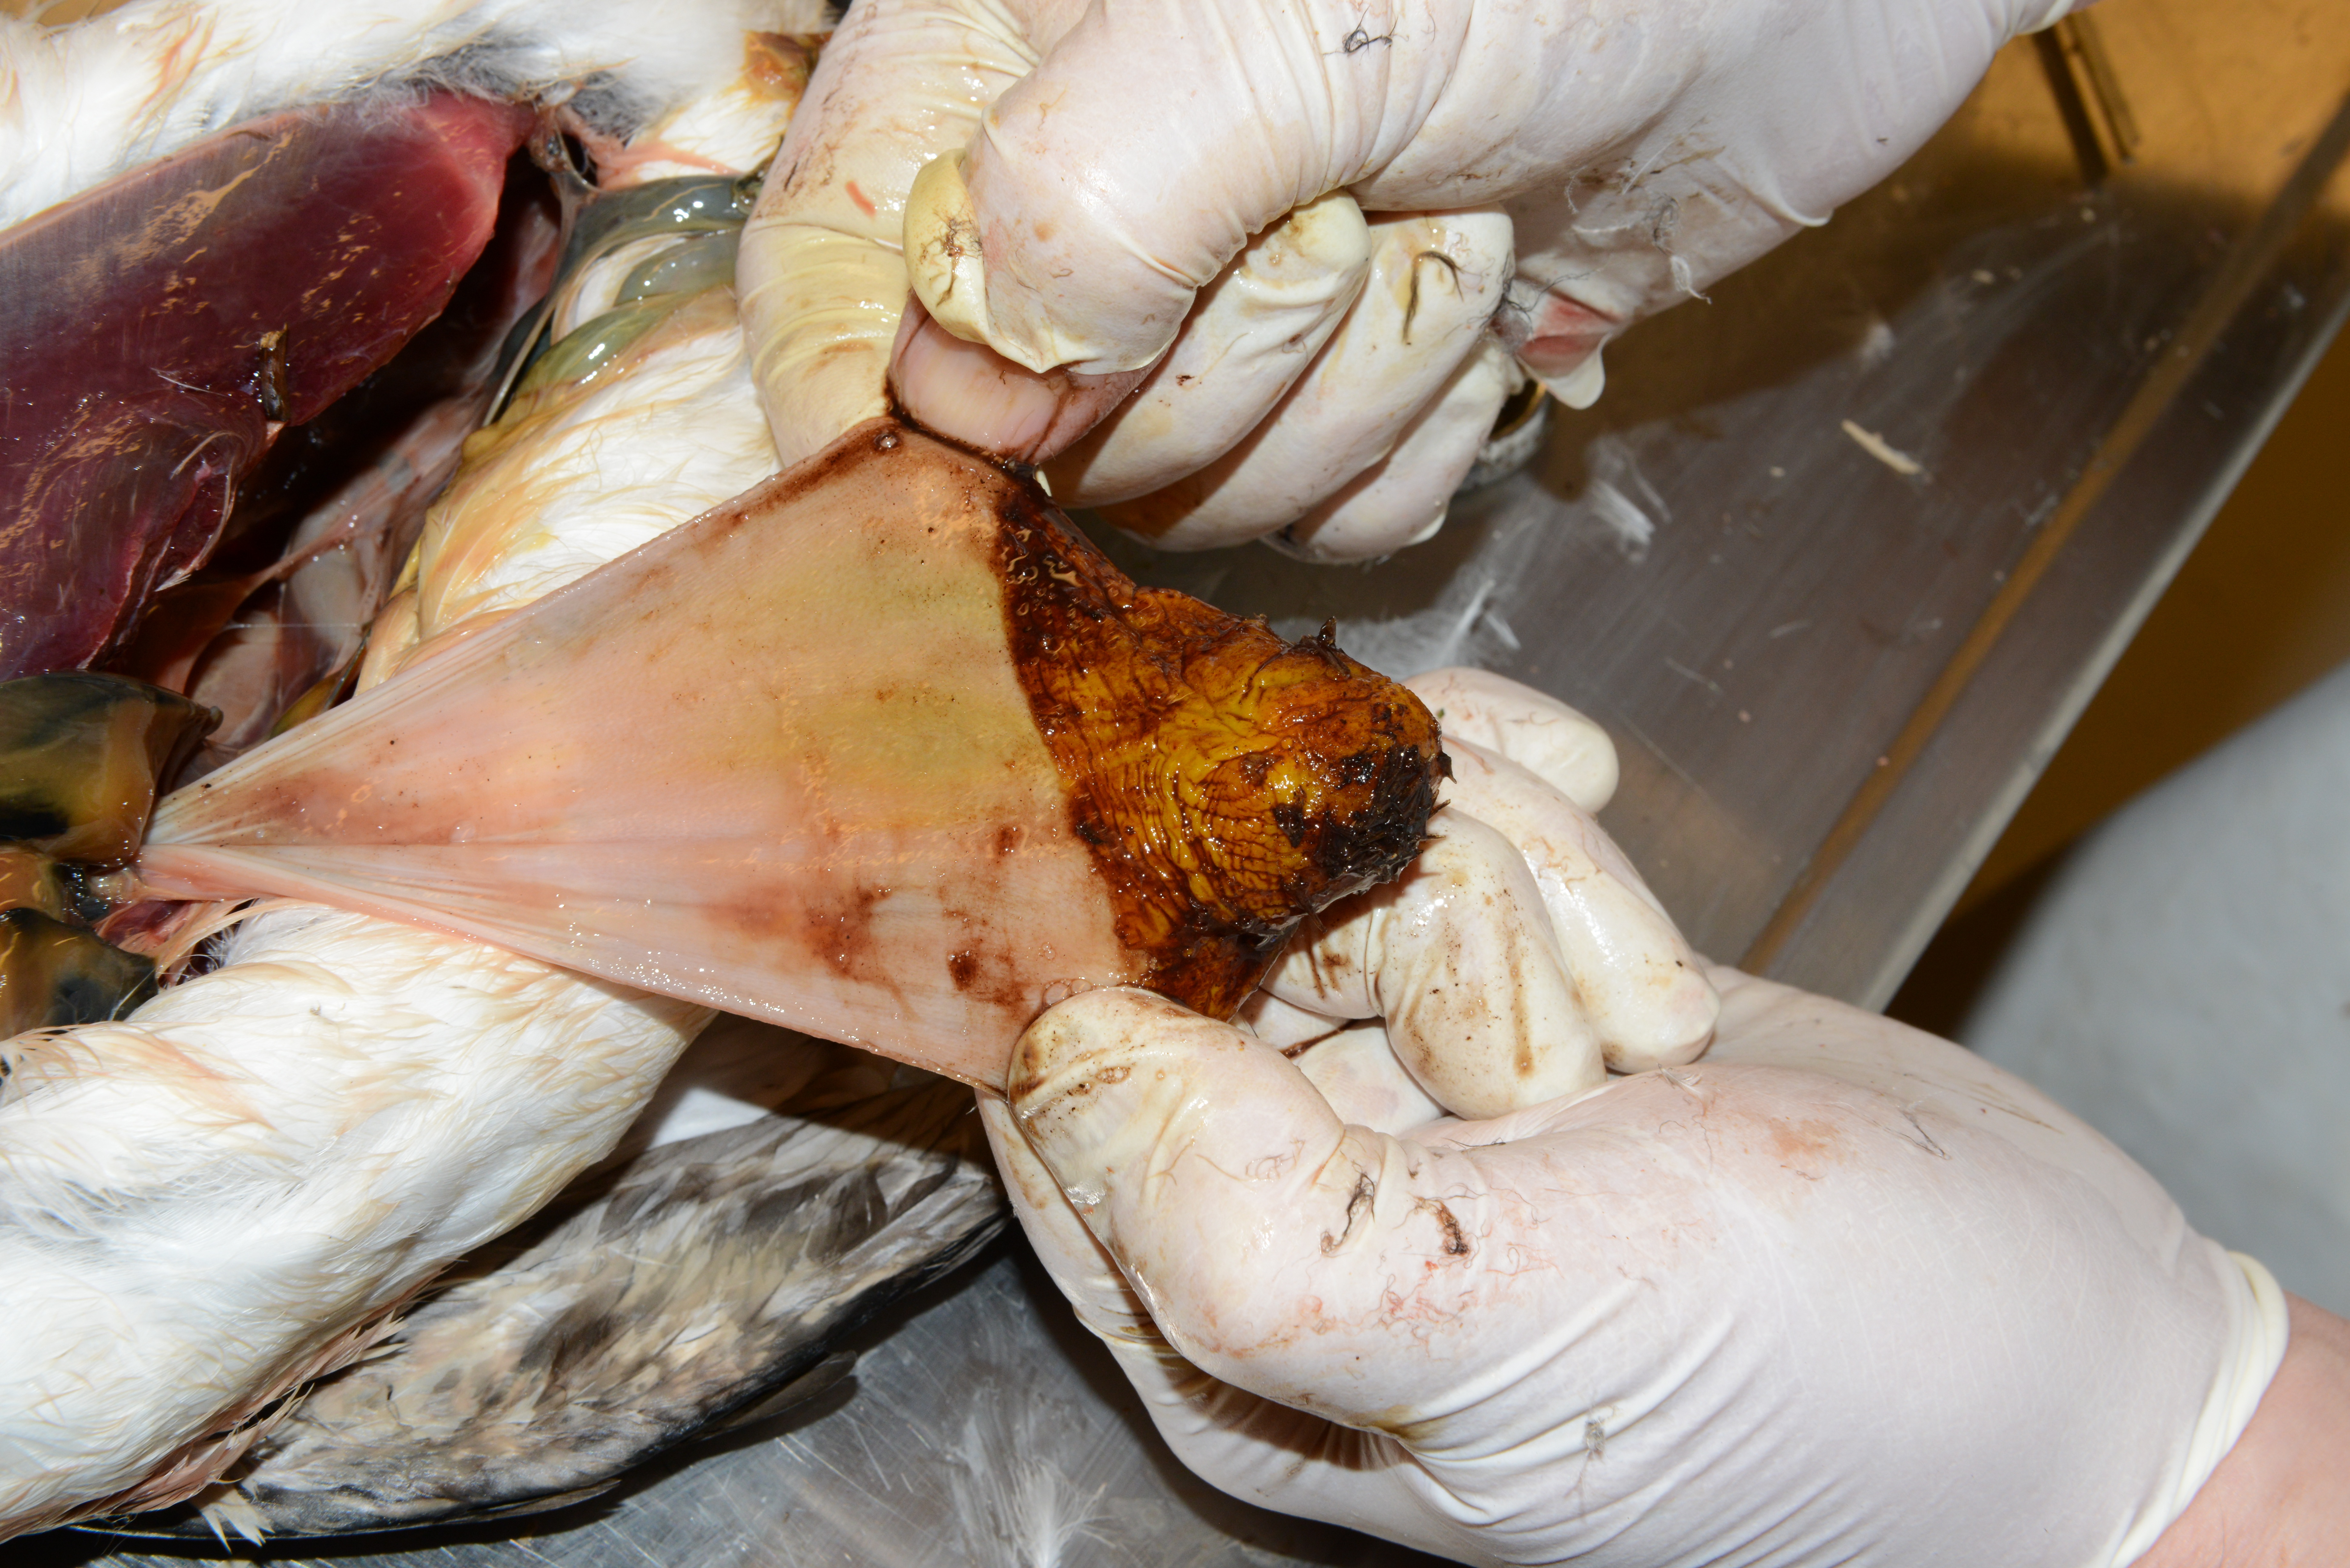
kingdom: Animalia
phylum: Chordata
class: Aves
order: Charadriiformes
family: Alcidae
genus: Uria
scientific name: Uria aalge
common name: Common murre
